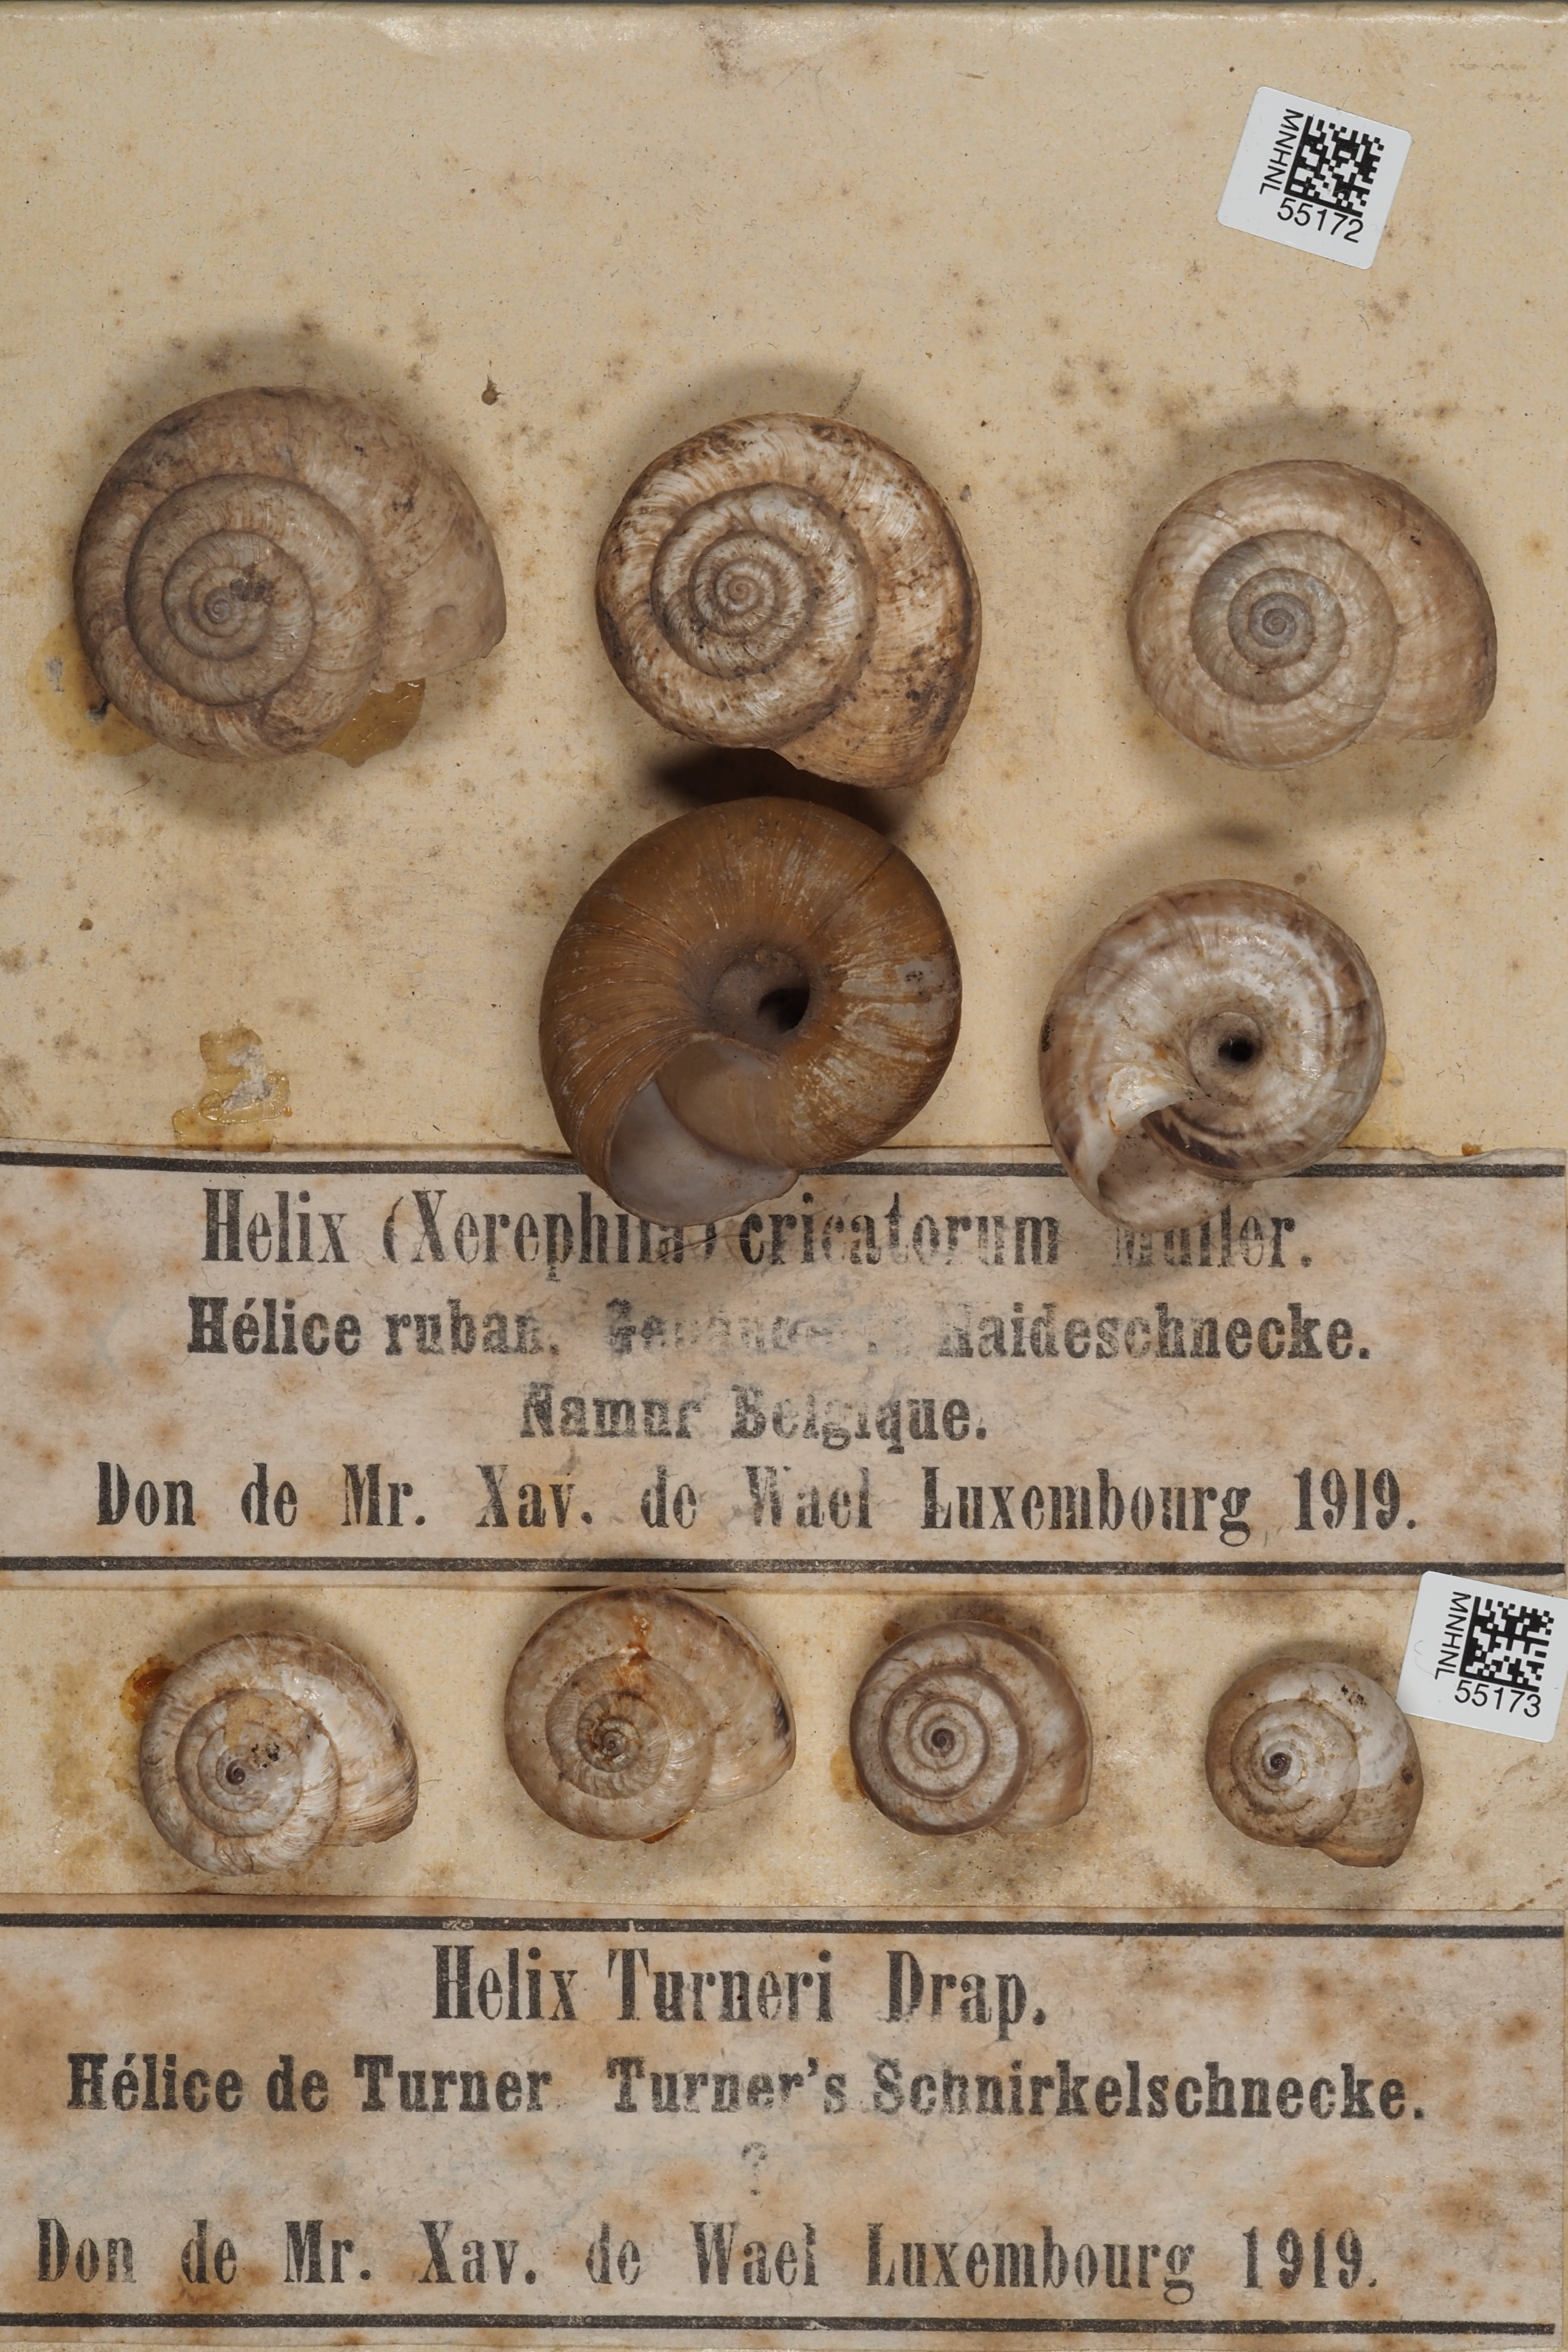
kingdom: Animalia
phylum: Mollusca
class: Gastropoda
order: Stylommatophora
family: Helicidae
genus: Helix
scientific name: Helix
